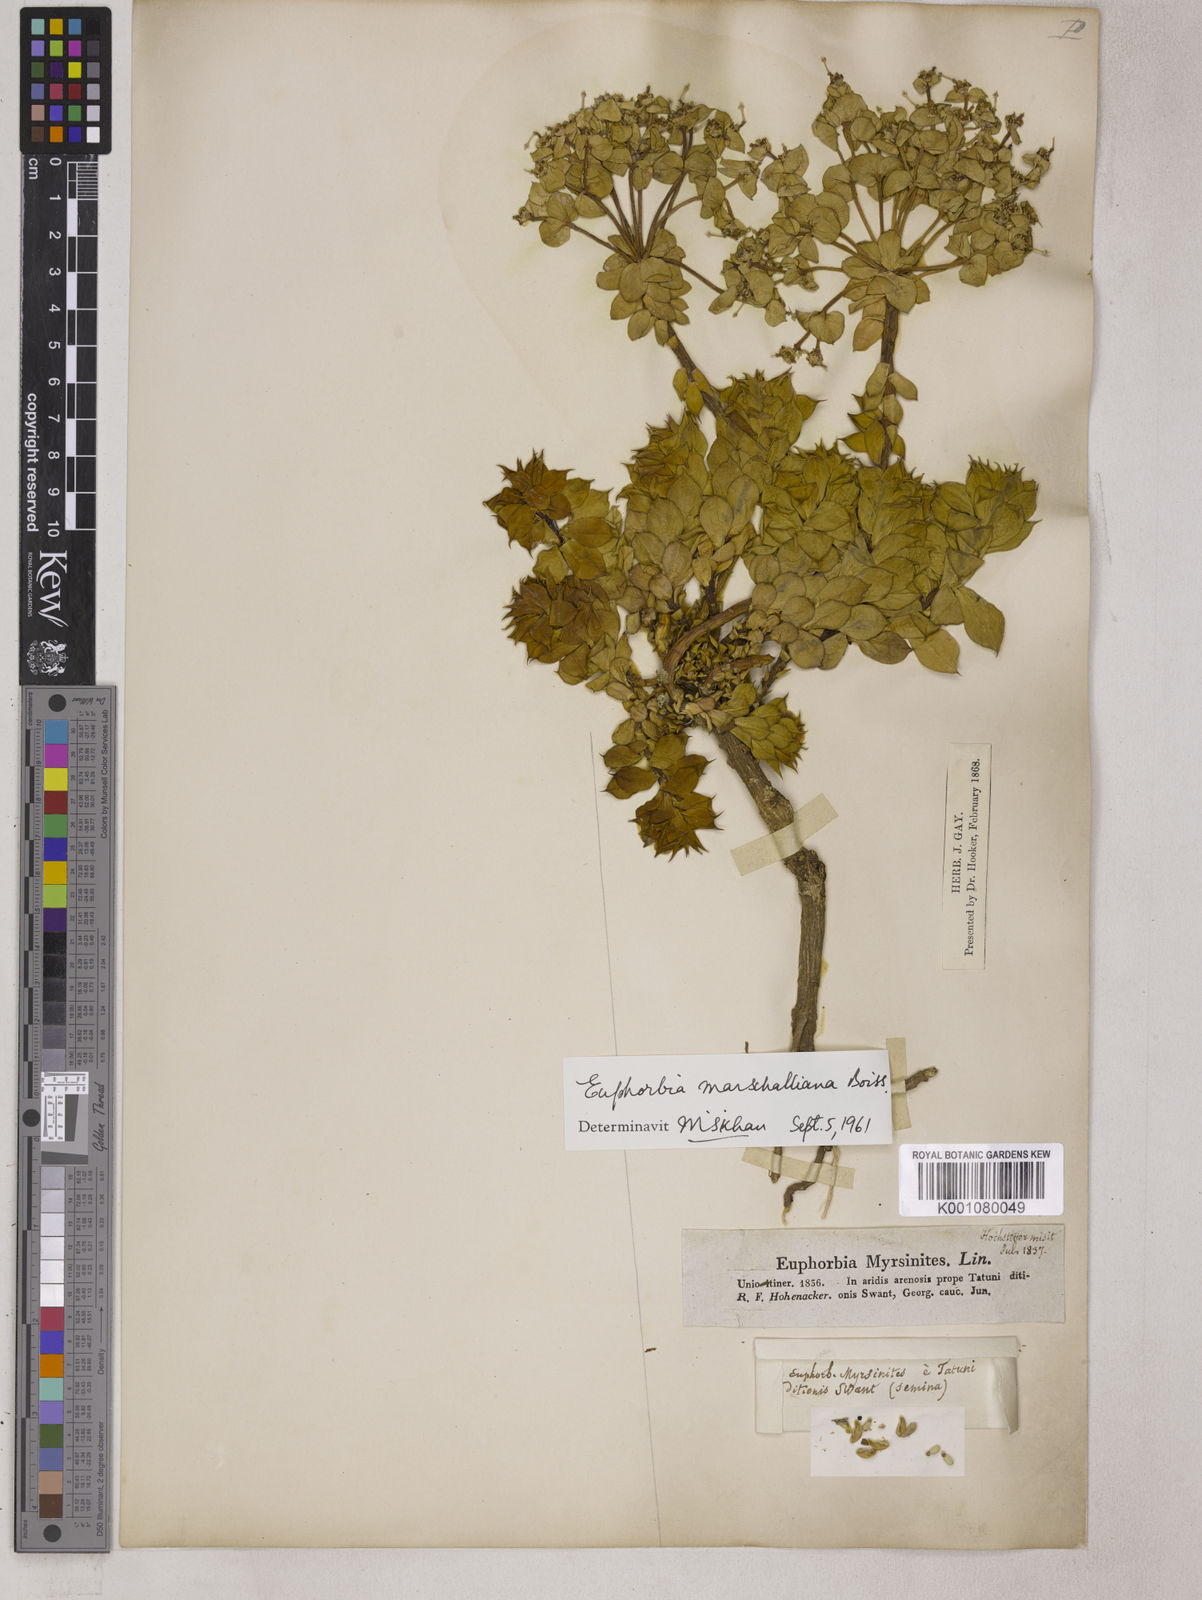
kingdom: Plantae
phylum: Tracheophyta
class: Magnoliopsida
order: Malpighiales
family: Euphorbiaceae
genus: Euphorbia
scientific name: Euphorbia marschalliana
